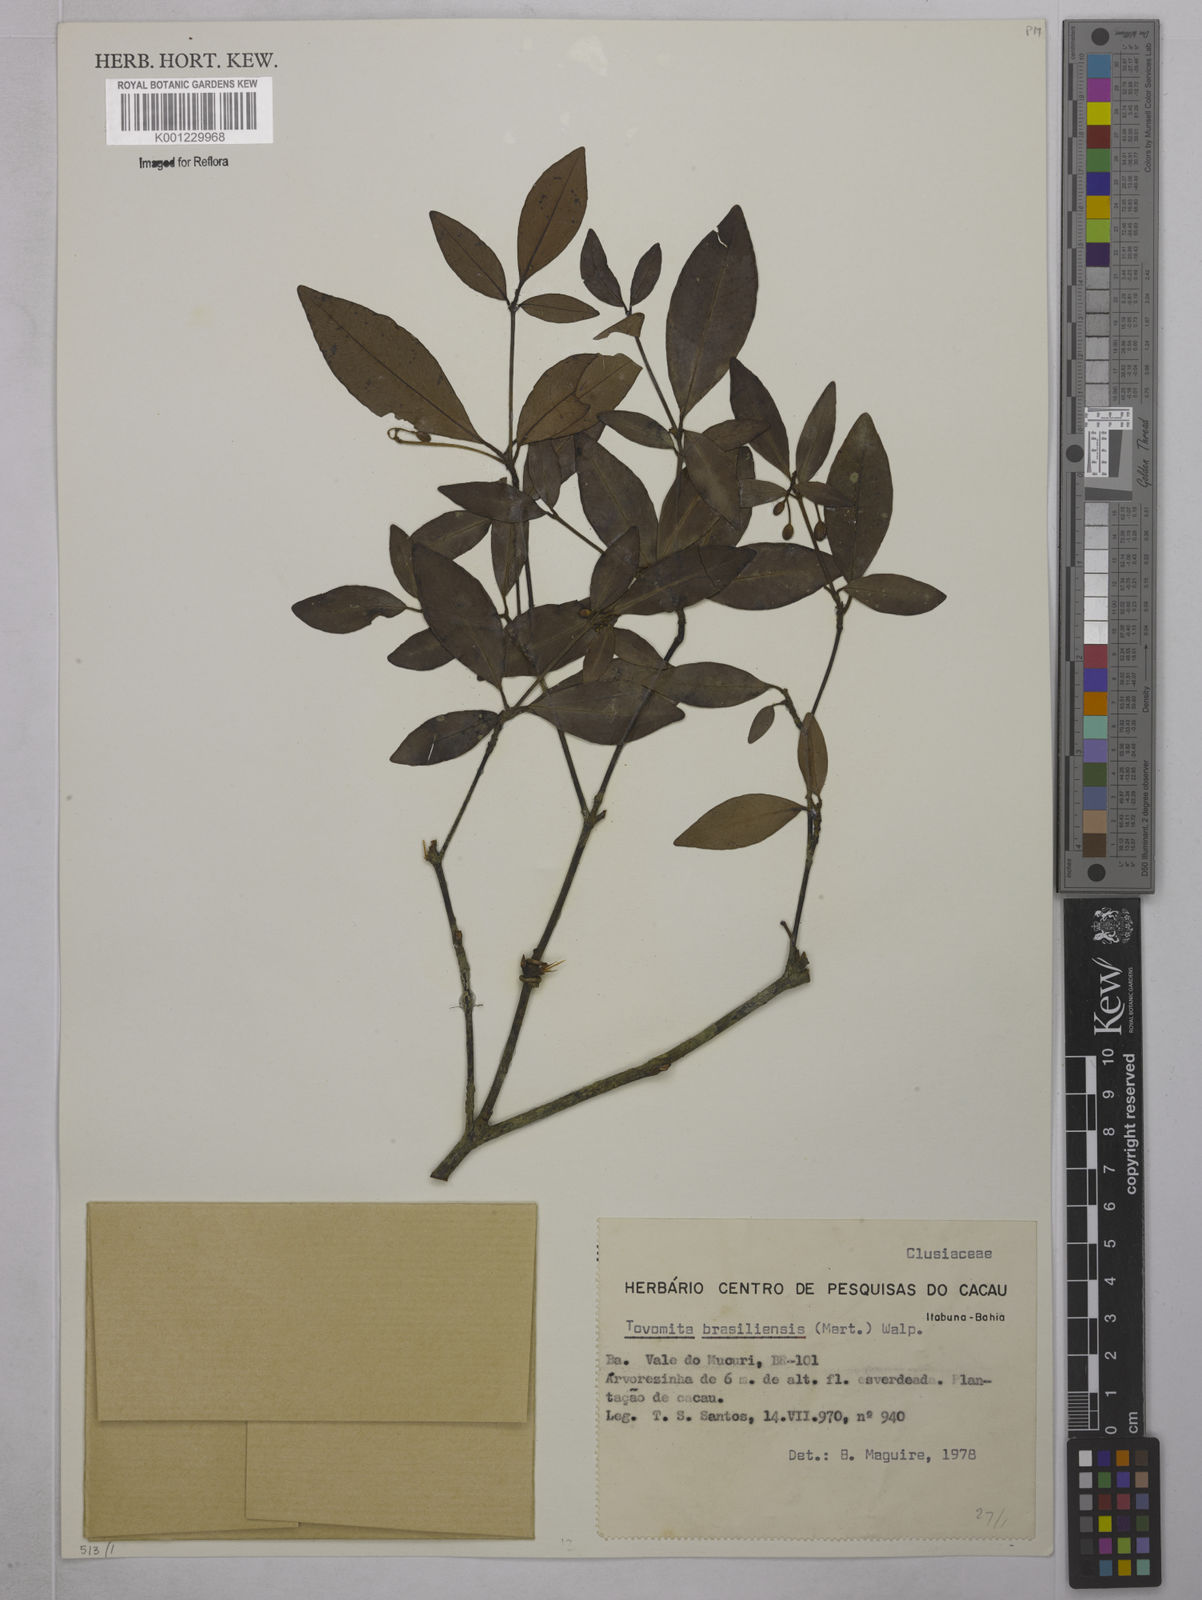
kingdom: Plantae
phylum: Tracheophyta
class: Magnoliopsida
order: Malpighiales
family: Clusiaceae
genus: Tovomita
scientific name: Tovomita
